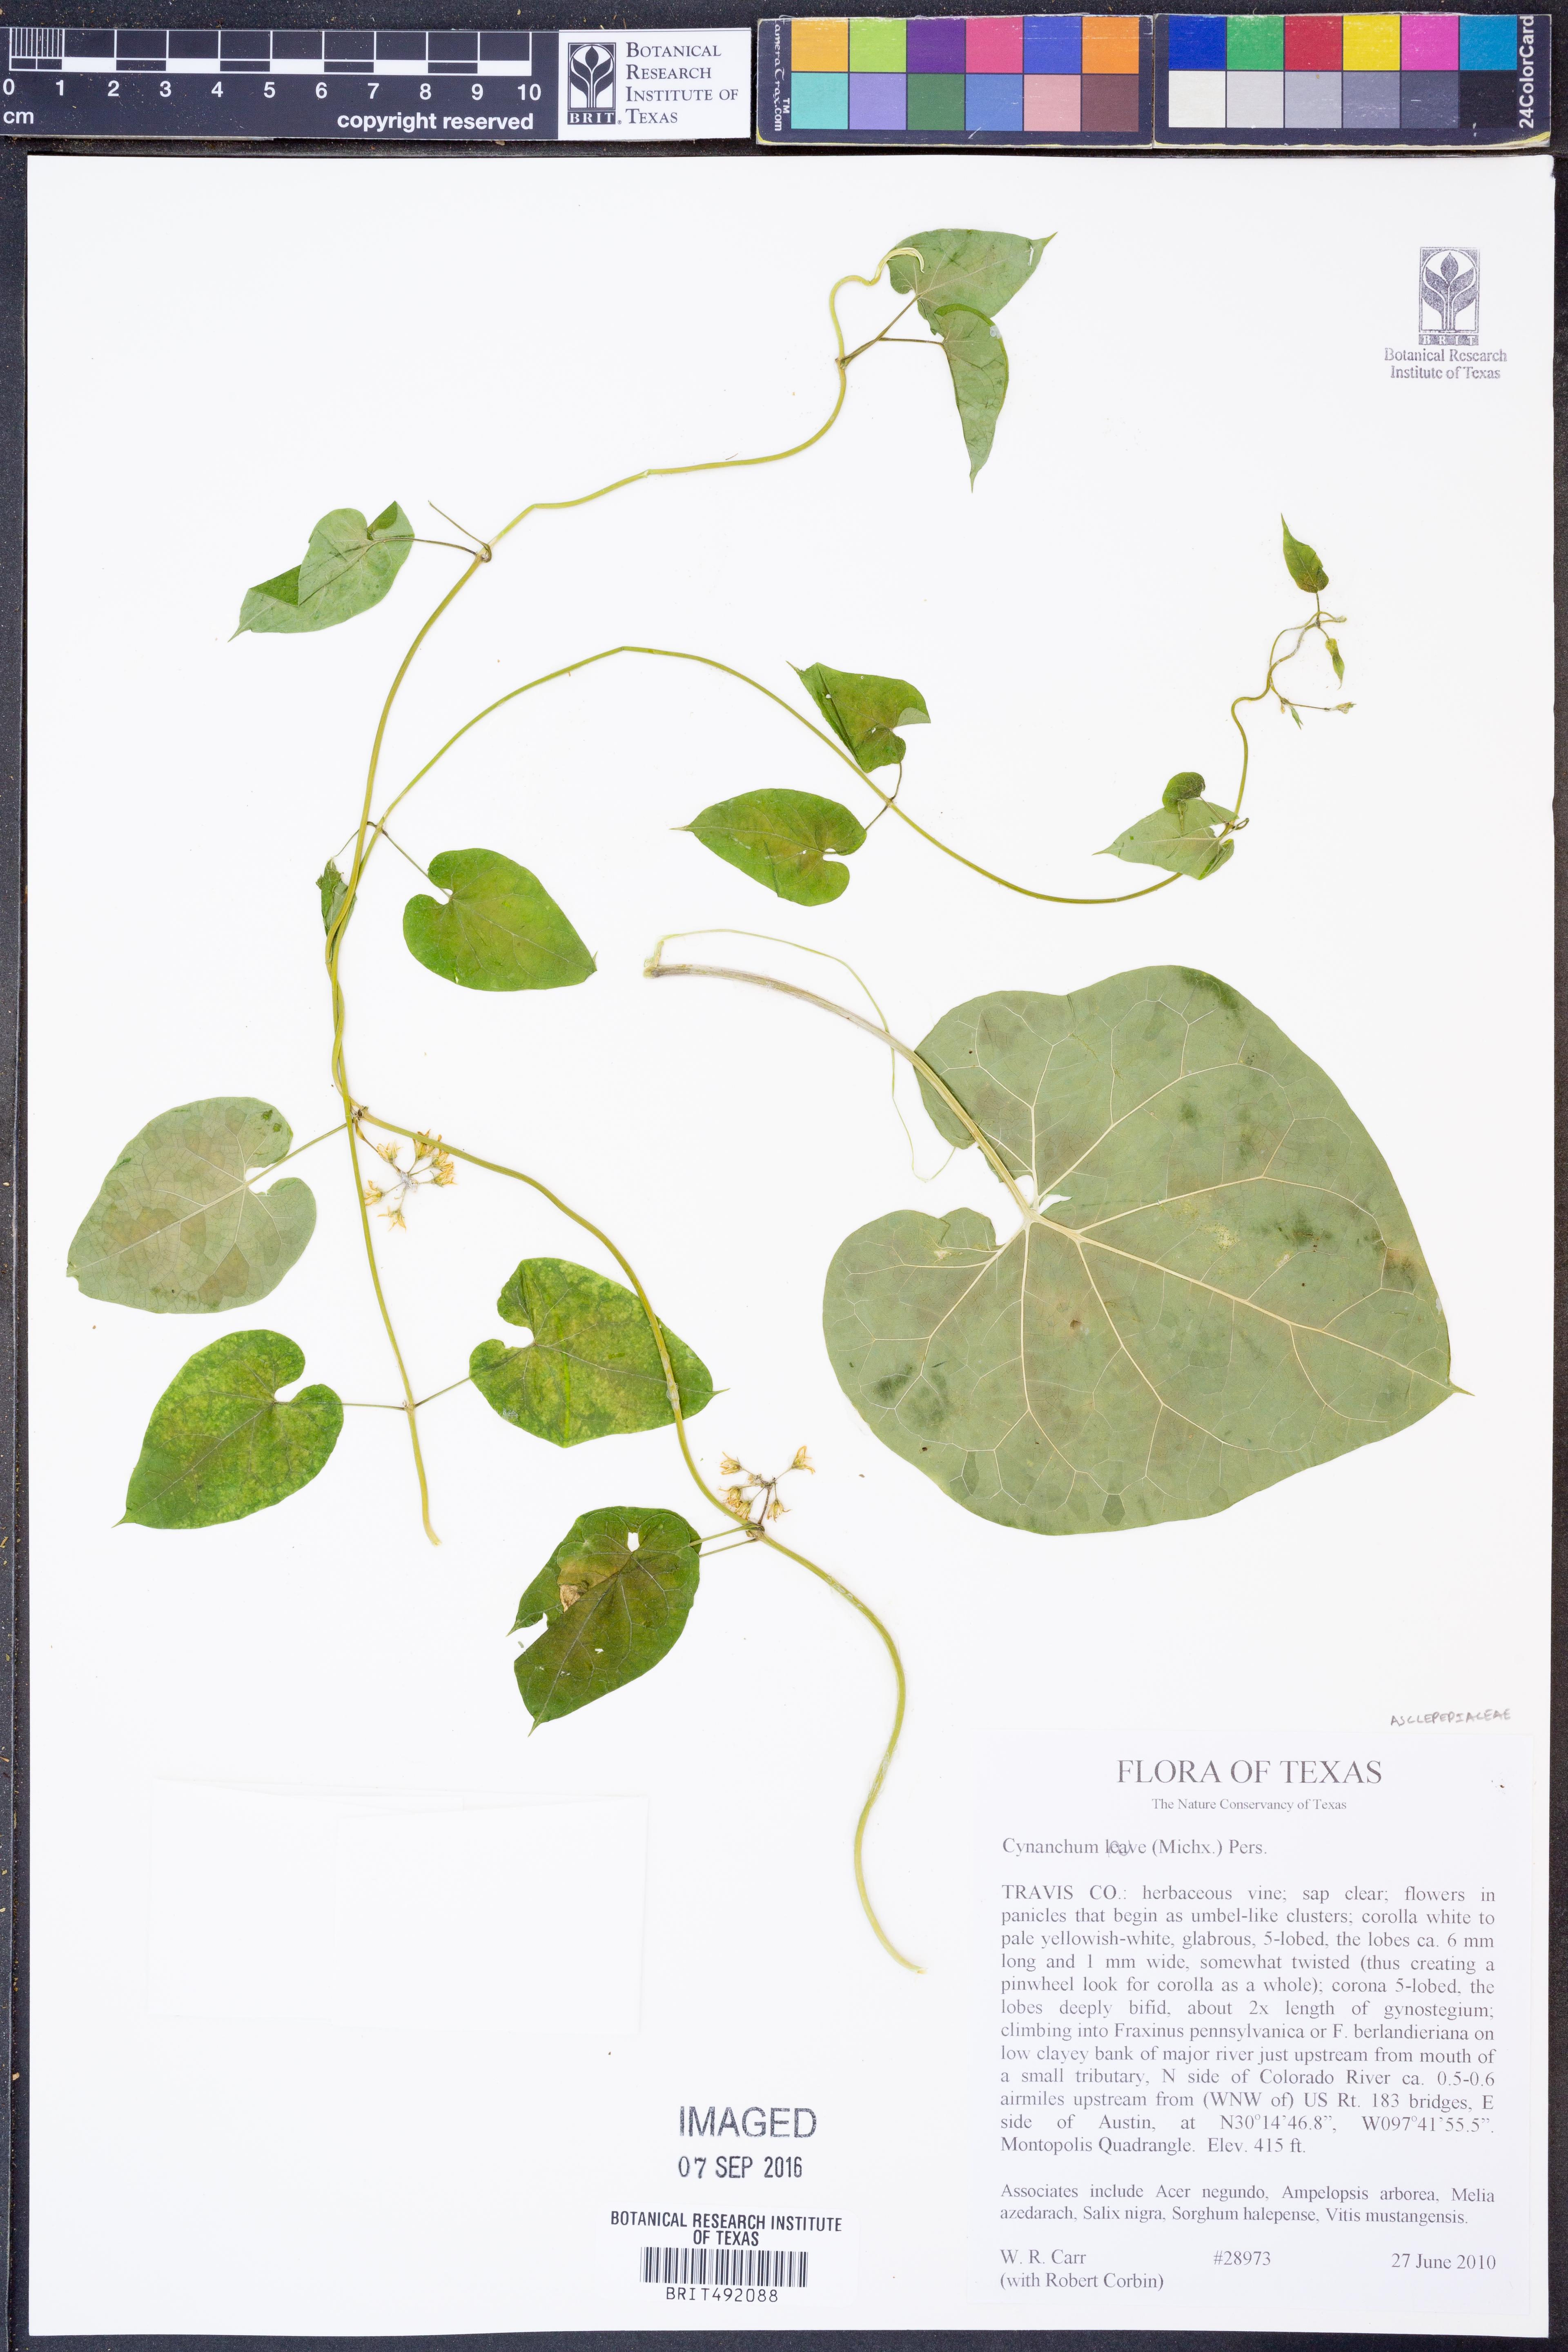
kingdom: Plantae
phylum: Tracheophyta
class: Magnoliopsida
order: Gentianales
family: Apocynaceae
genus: Cynanchum
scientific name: Cynanchum laeve
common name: Sandvine
